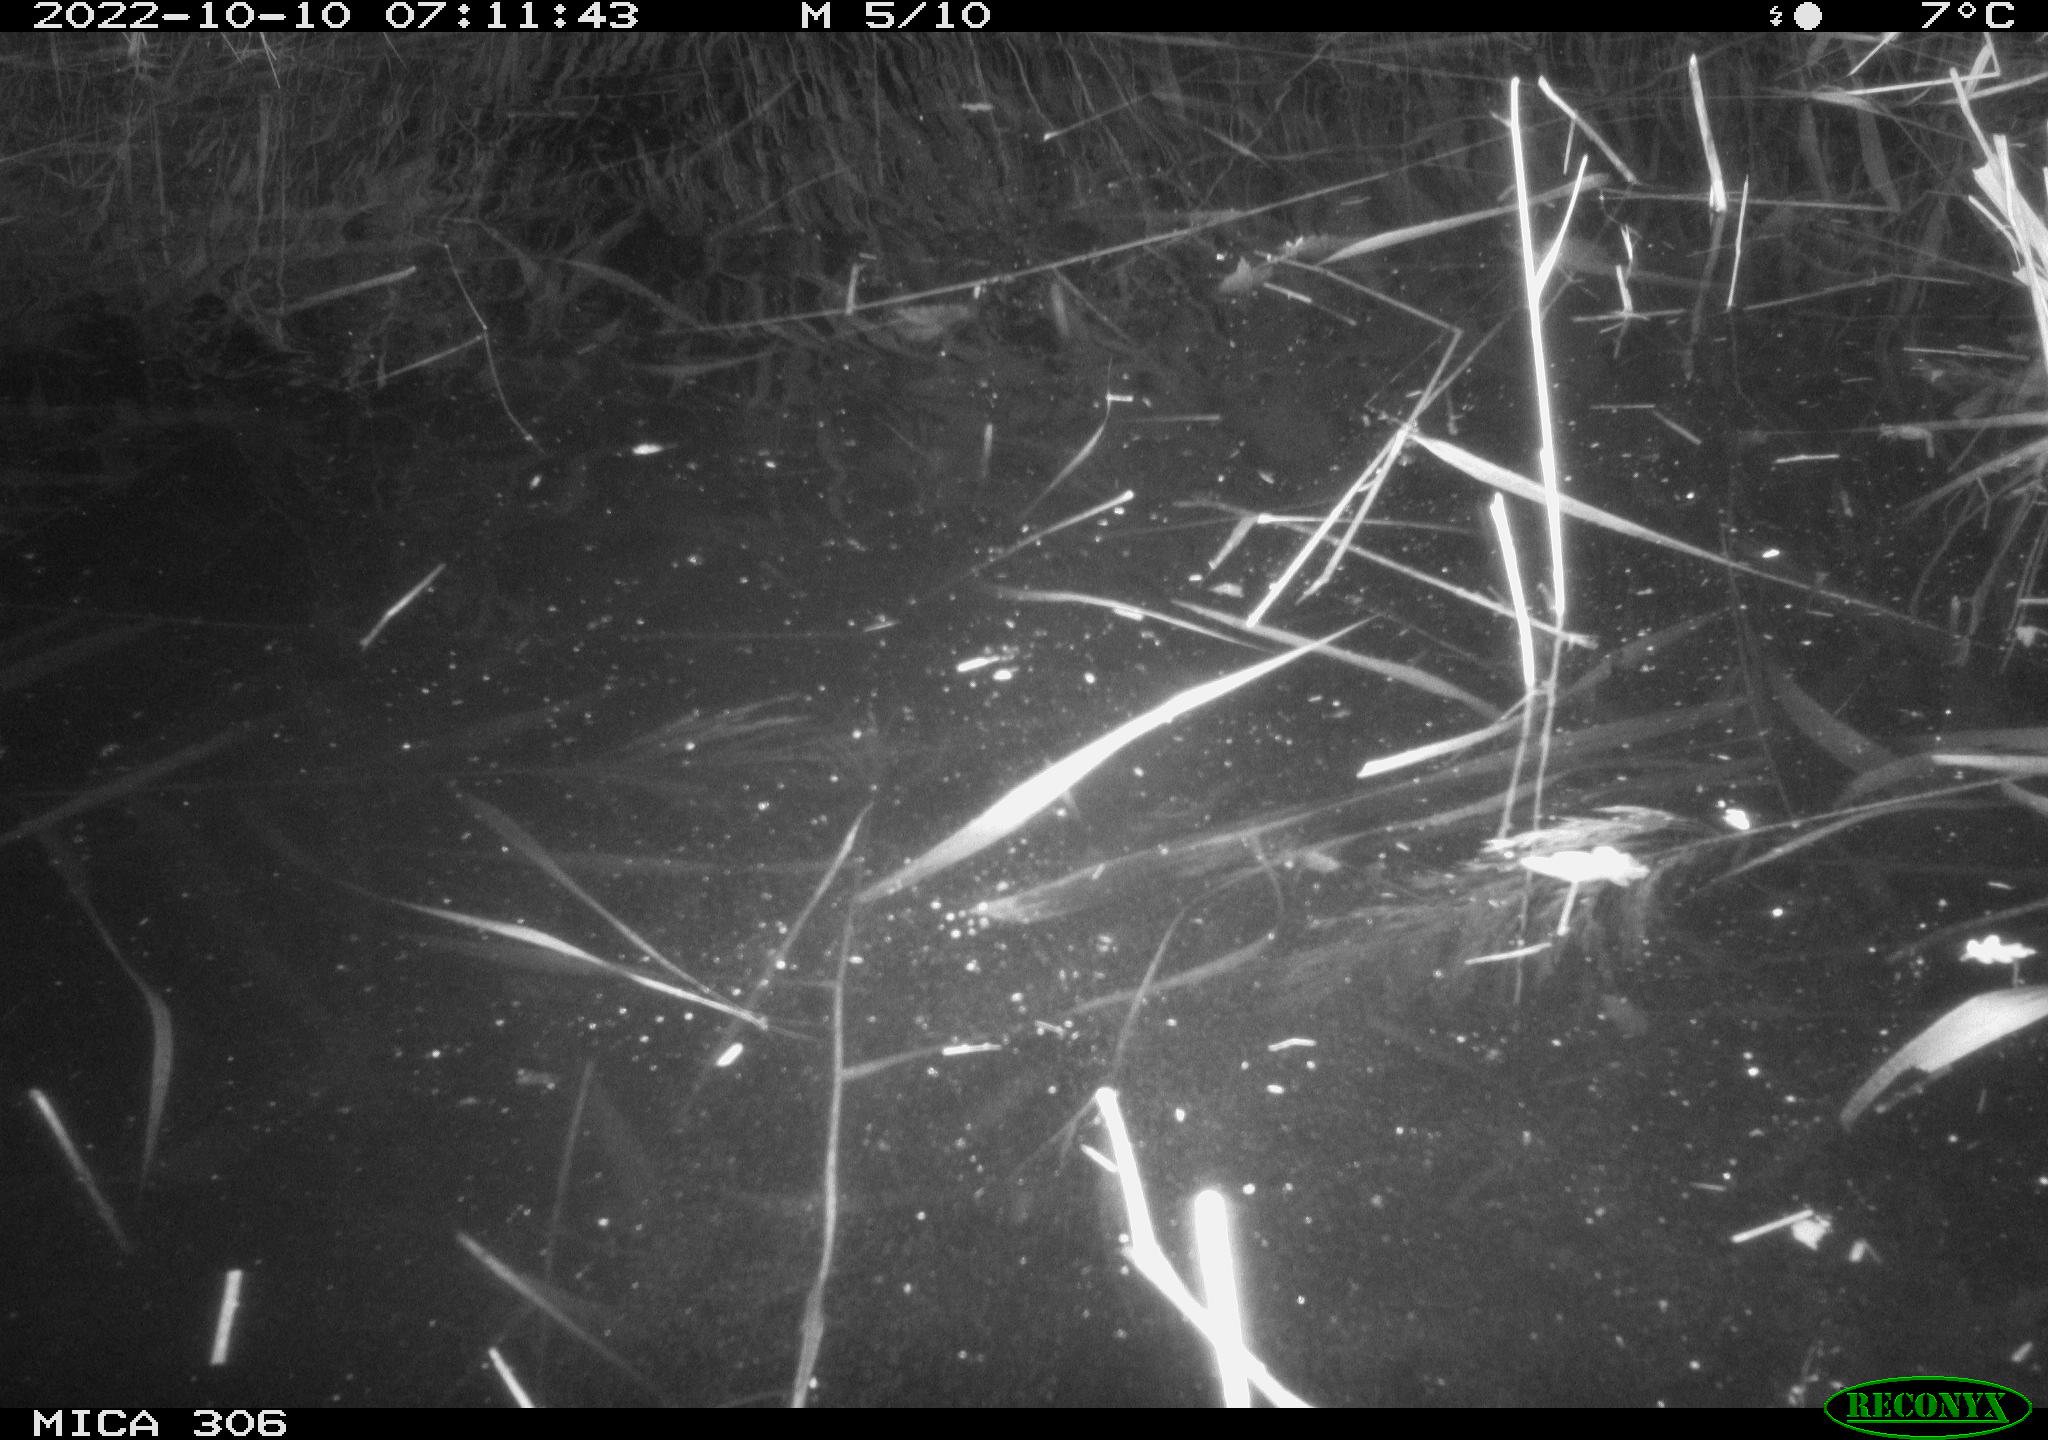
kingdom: Animalia
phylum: Chordata
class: Mammalia
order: Rodentia
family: Muridae
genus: Rattus
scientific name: Rattus norvegicus
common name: Brown rat
